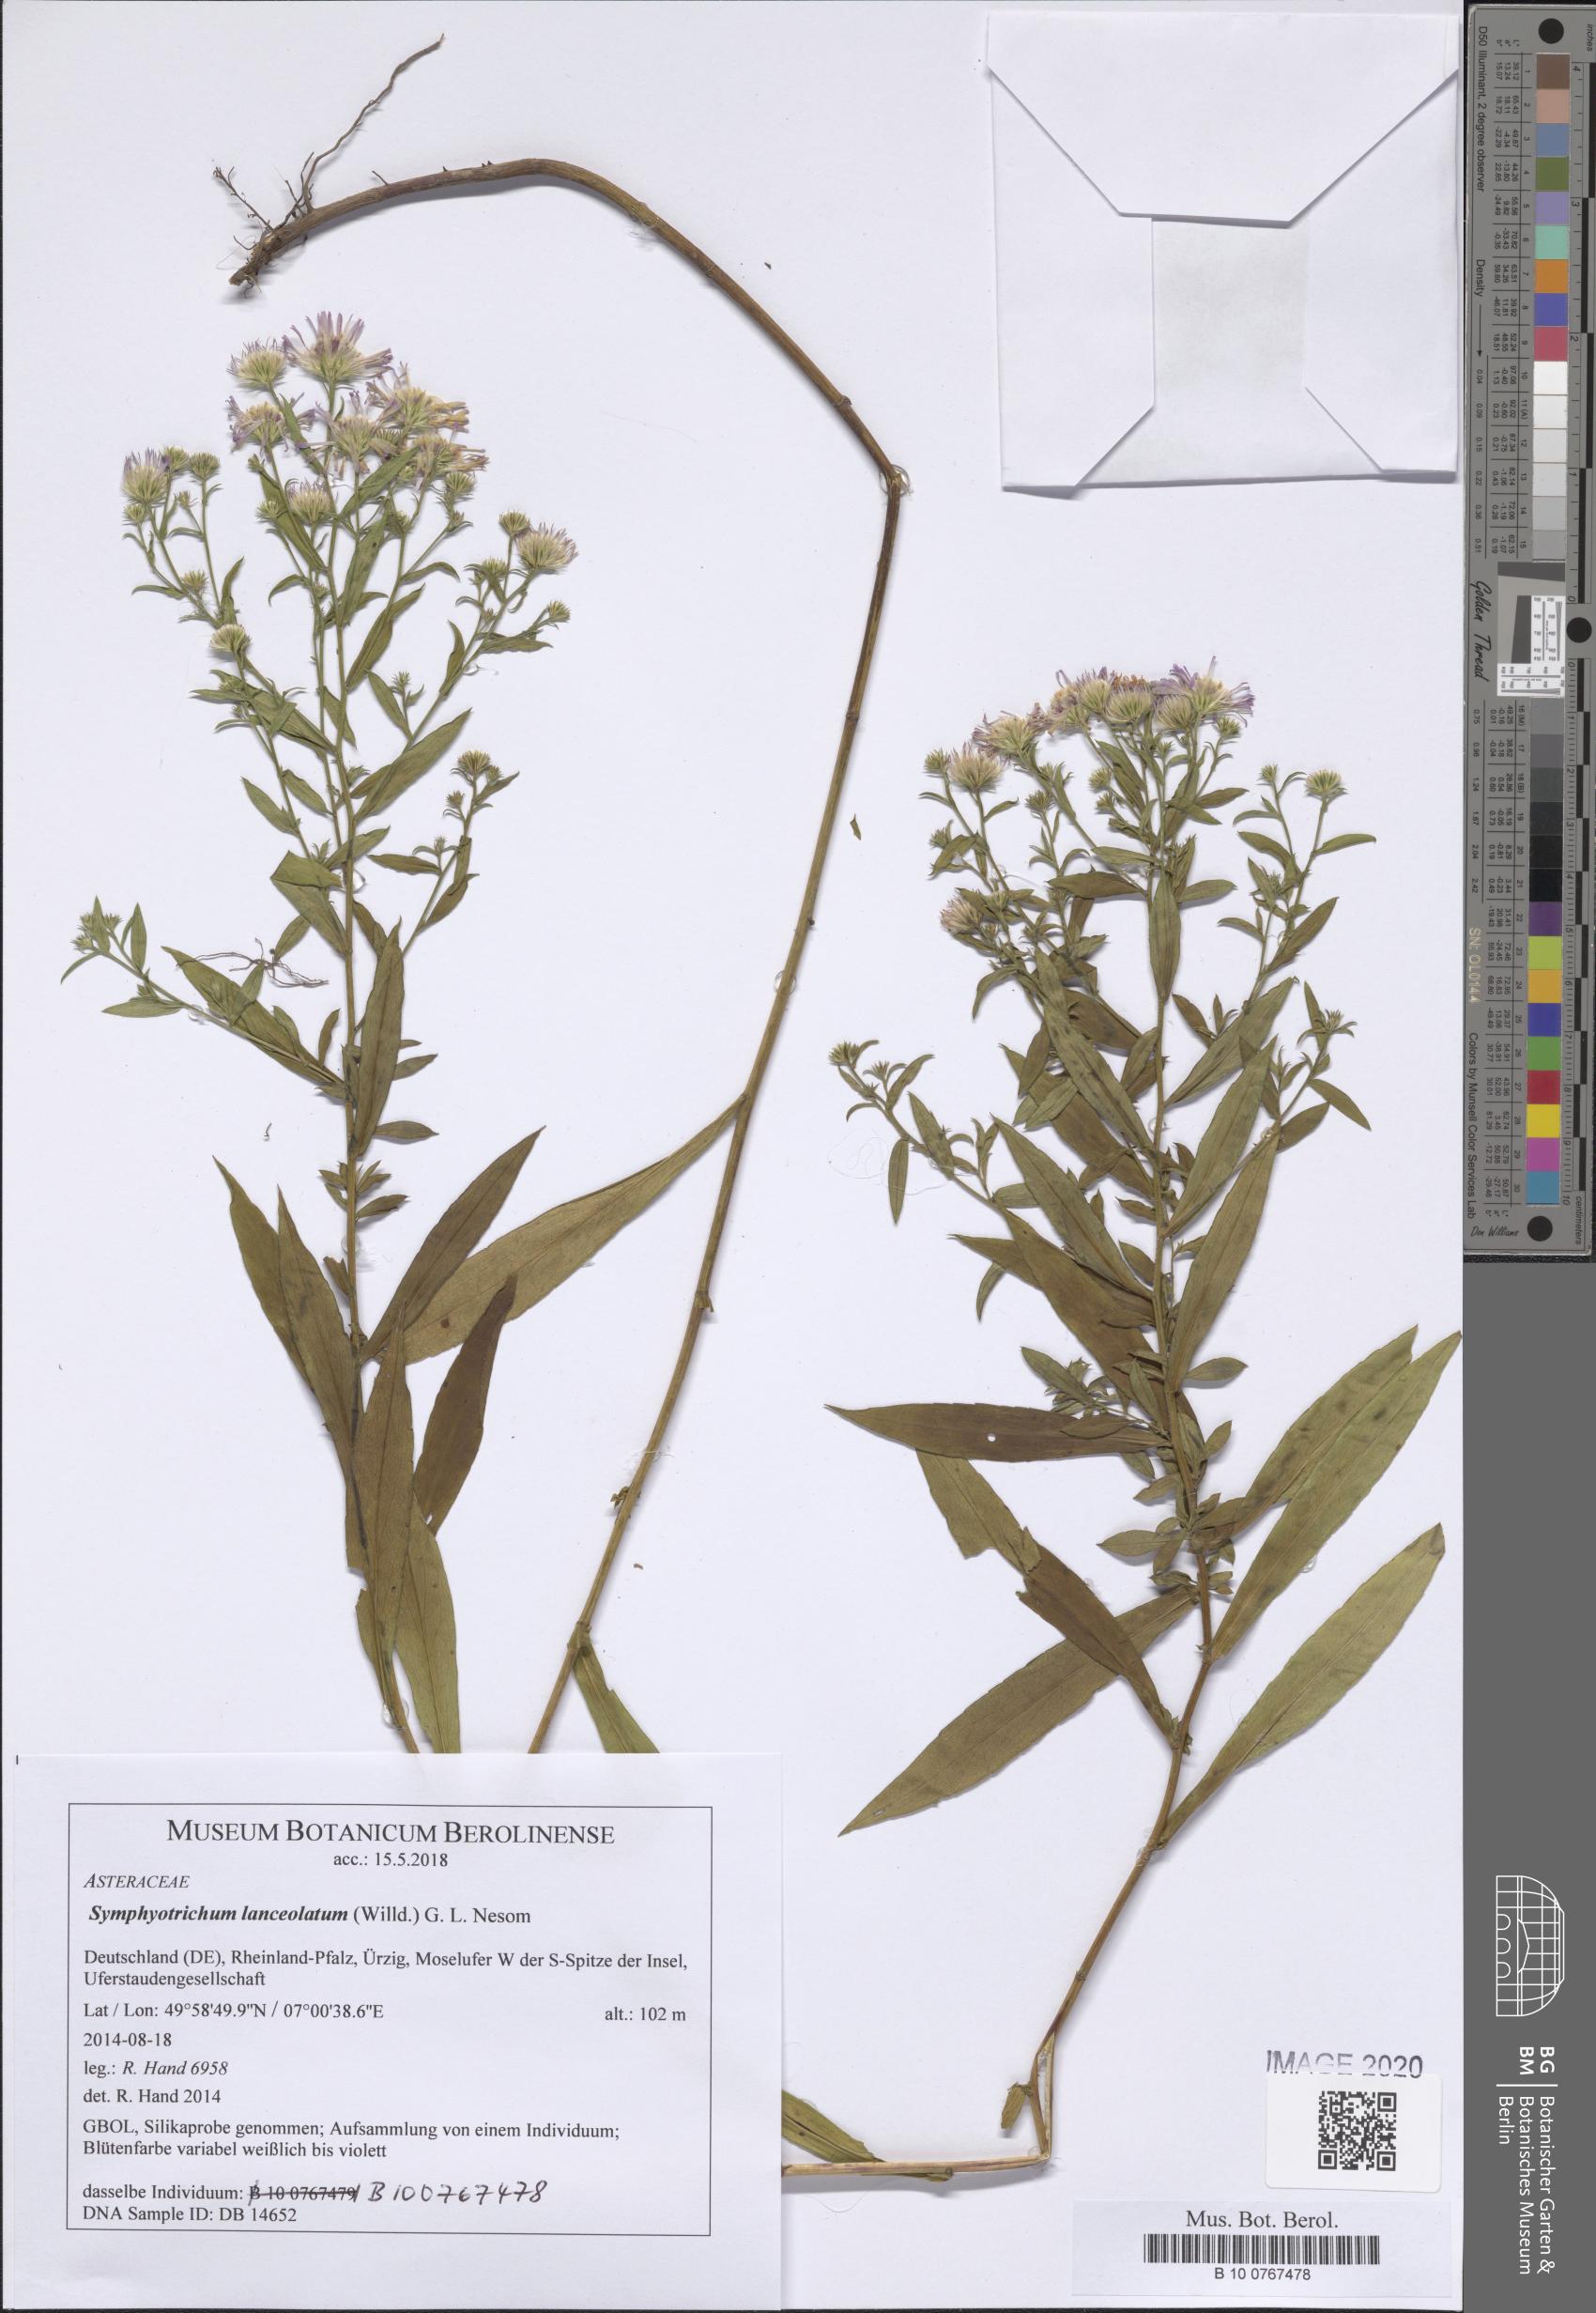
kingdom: Plantae
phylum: Tracheophyta
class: Magnoliopsida
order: Asterales
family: Asteraceae
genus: Symphyotrichum
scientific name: Symphyotrichum lanceolatum
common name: Panicled aster
